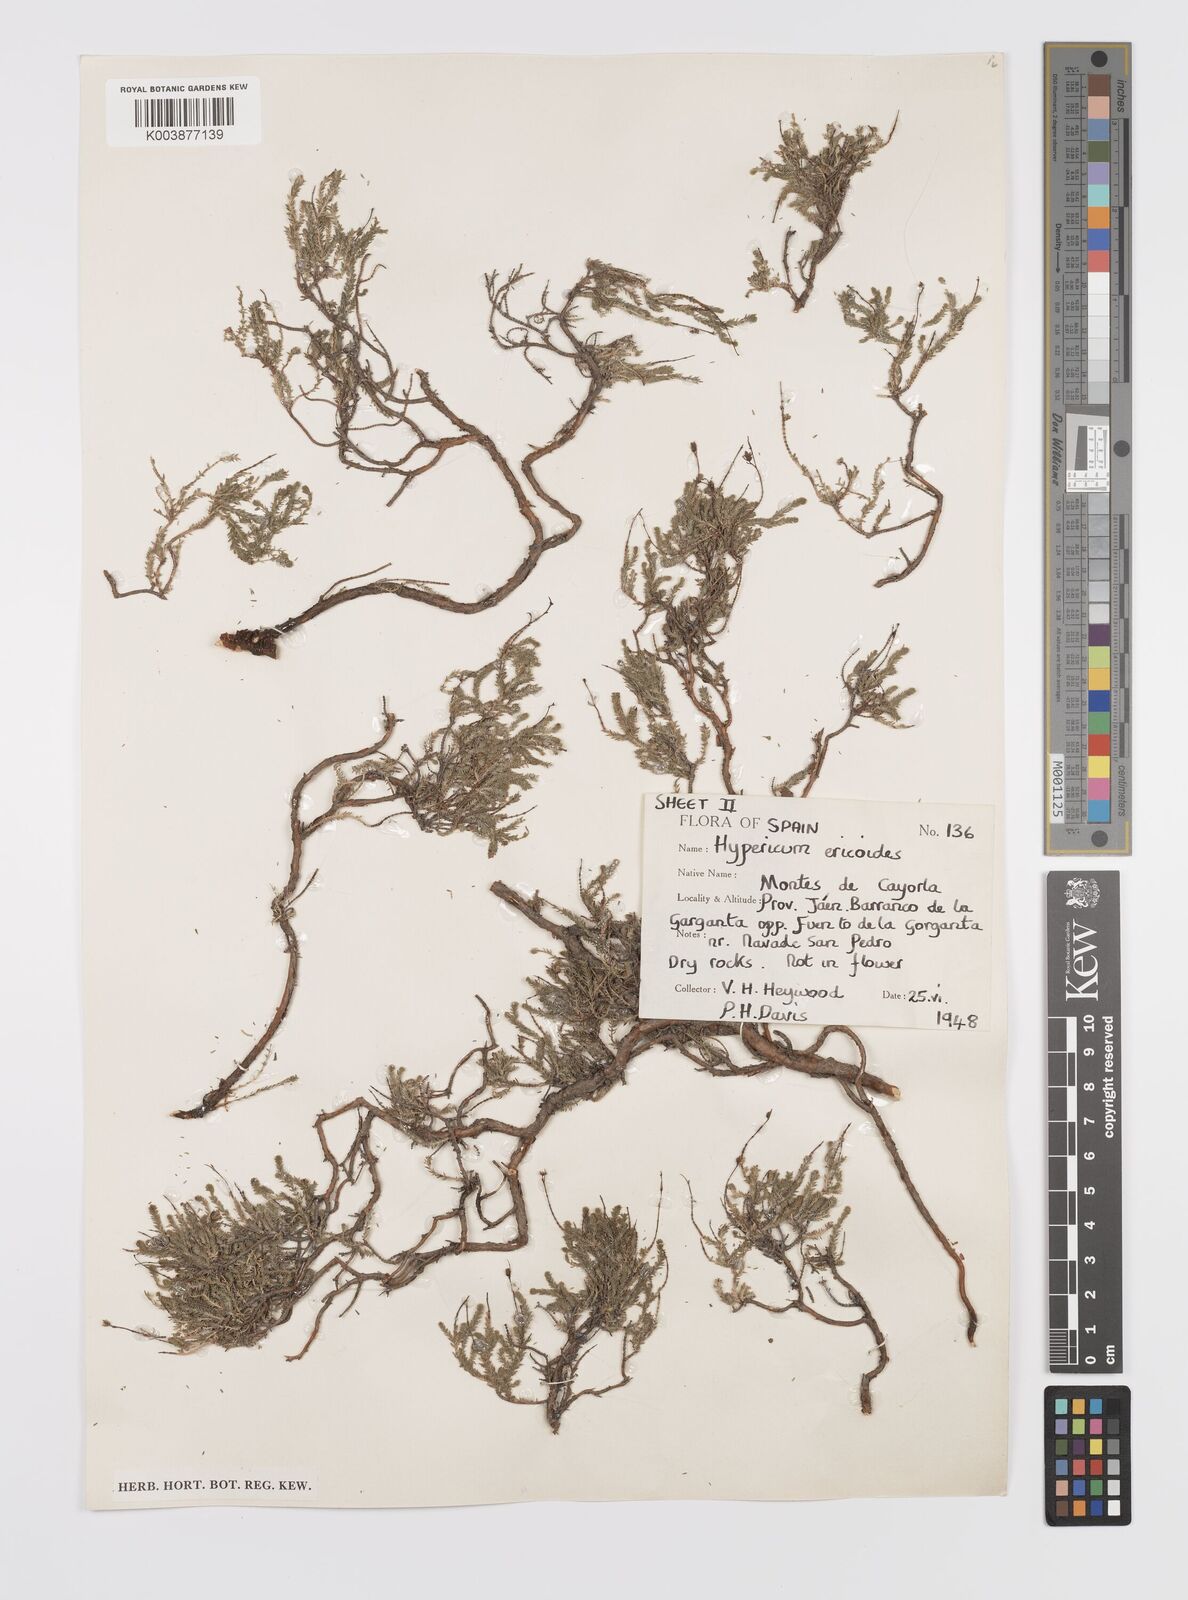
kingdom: Plantae
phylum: Tracheophyta
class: Magnoliopsida
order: Malpighiales
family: Hypericaceae
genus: Hypericum
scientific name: Hypericum ericoides
